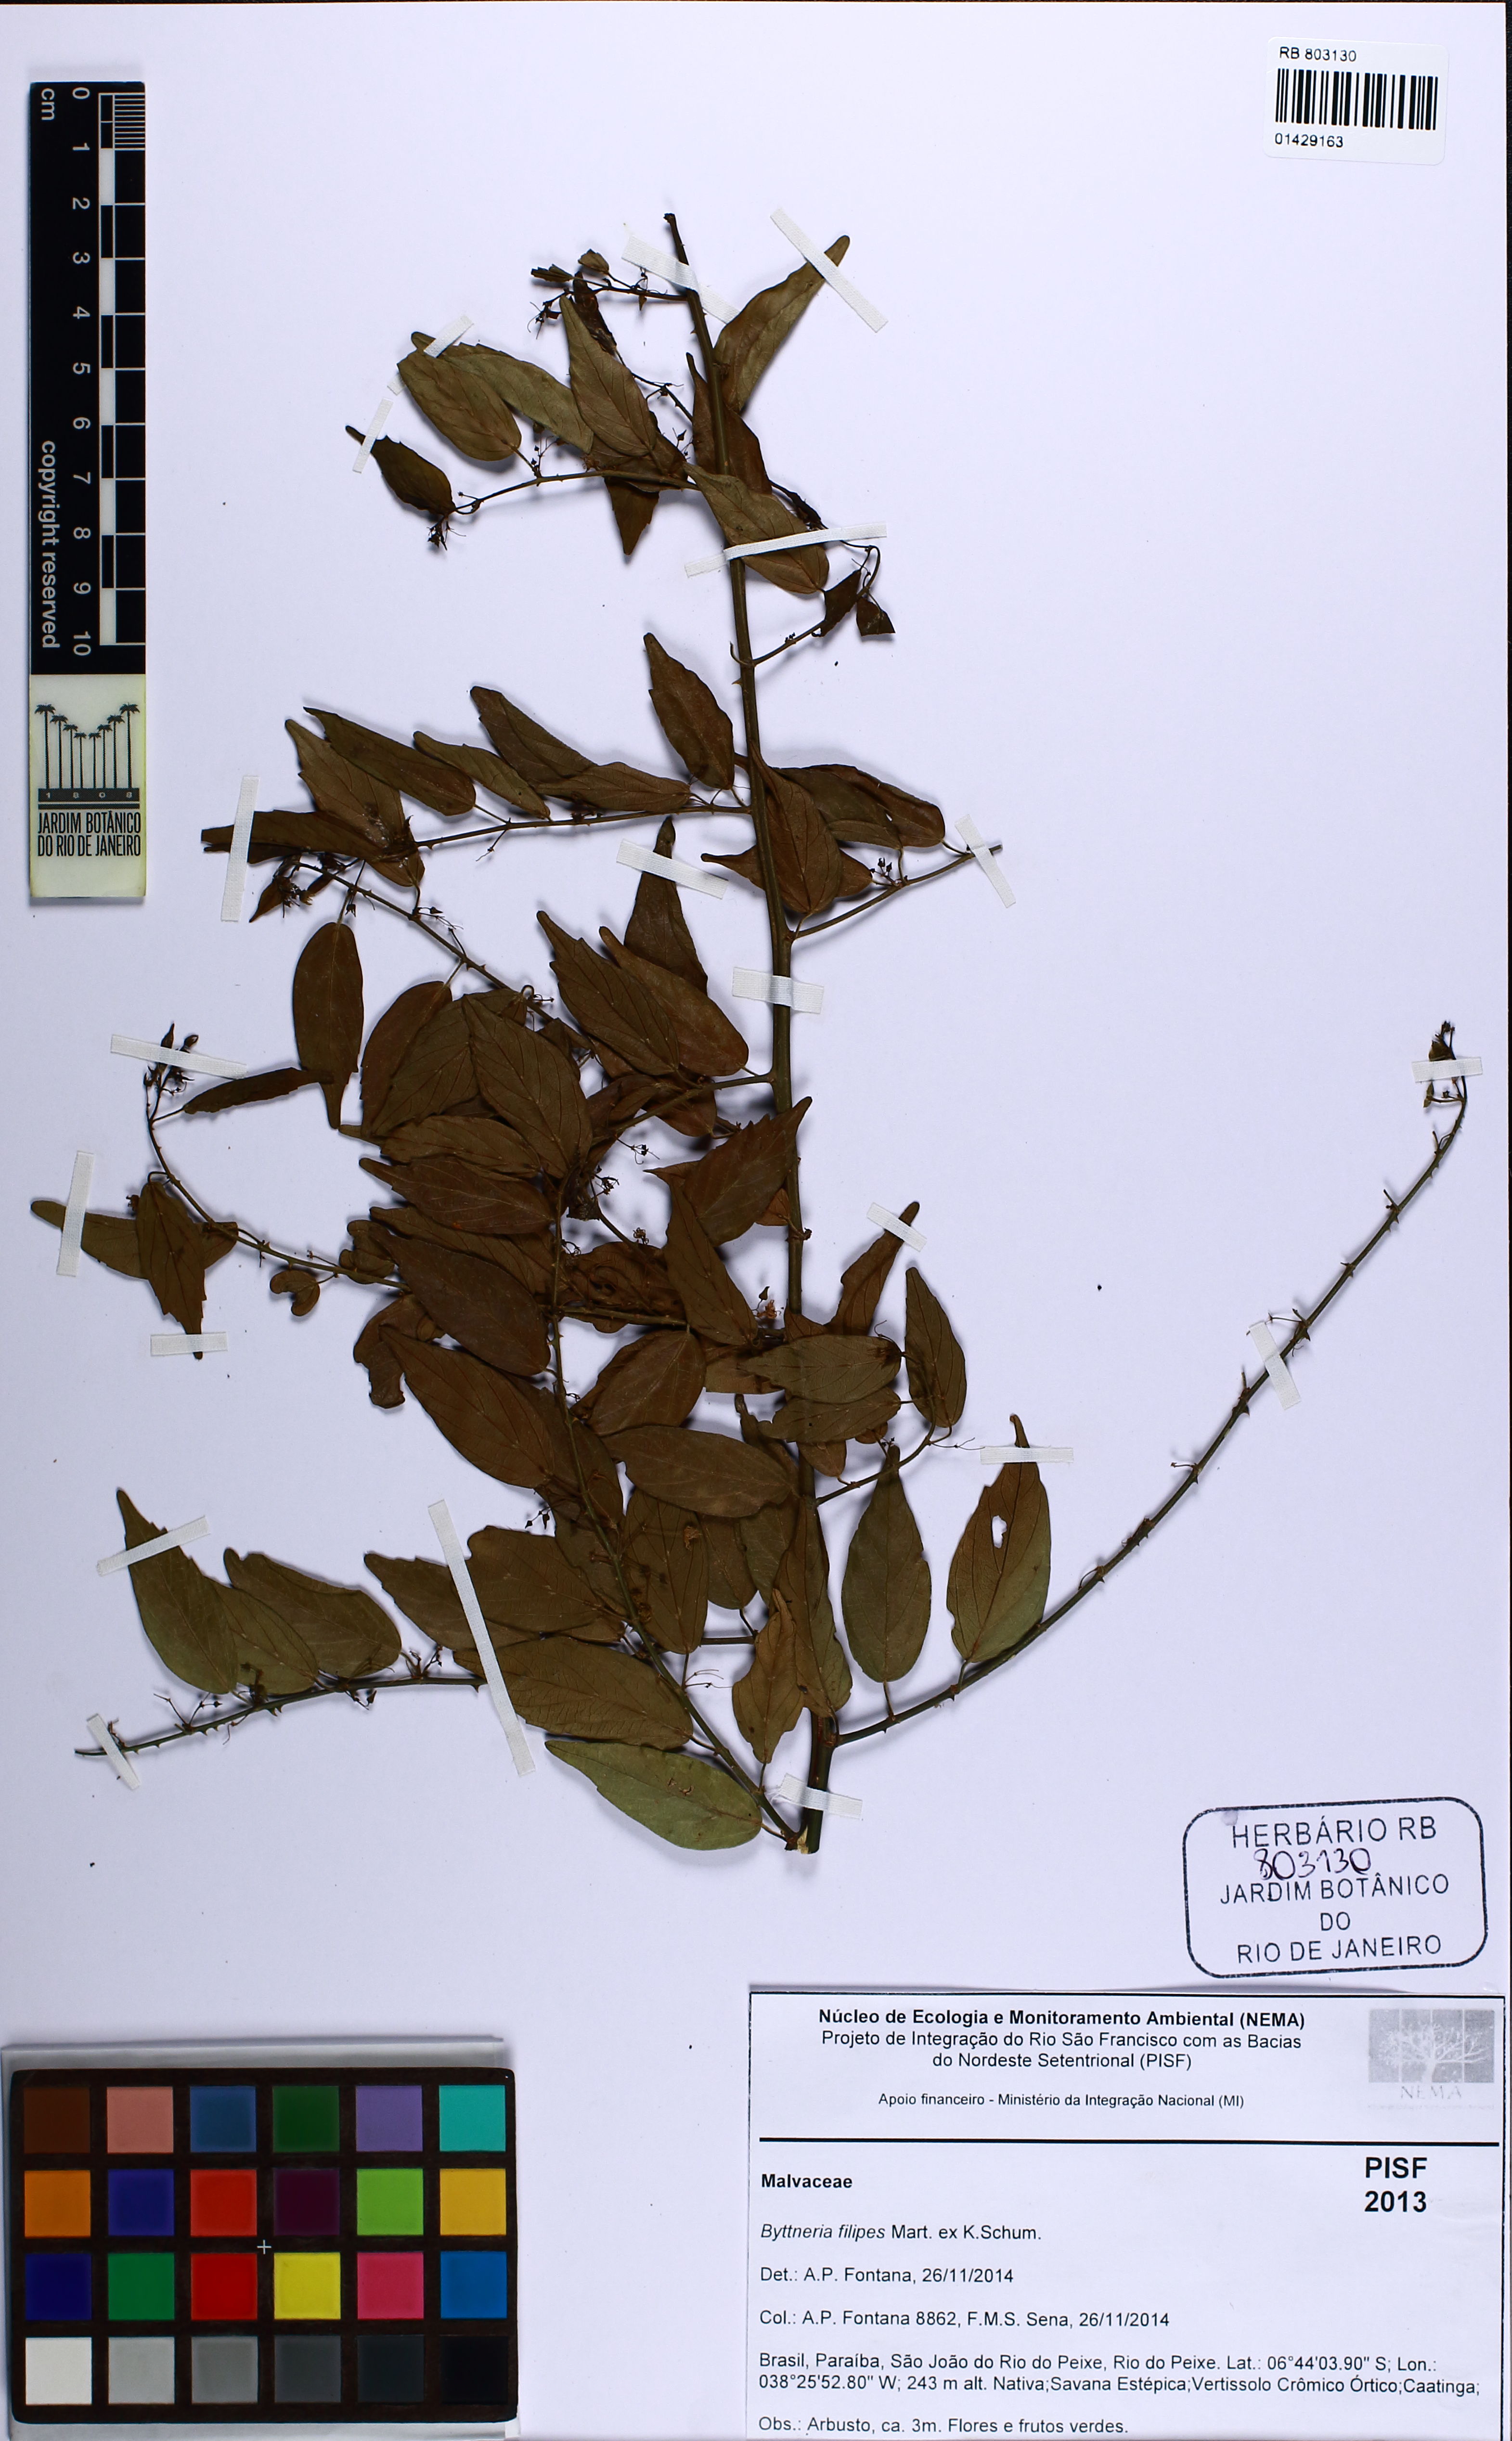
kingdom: Plantae
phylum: Tracheophyta
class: Magnoliopsida
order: Malvales
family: Malvaceae
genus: Byttneria
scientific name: Byttneria filipes
